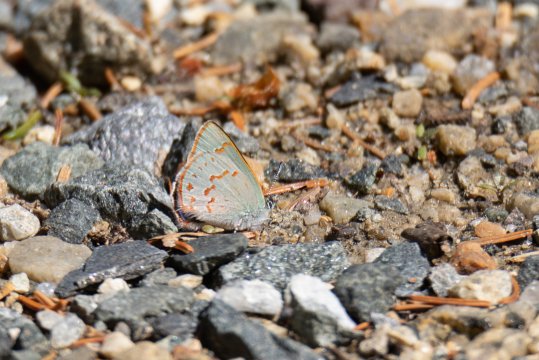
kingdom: Animalia
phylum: Arthropoda
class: Insecta
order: Lepidoptera
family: Lycaenidae
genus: Erora
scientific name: Erora laeta
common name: Early Hairstreak
